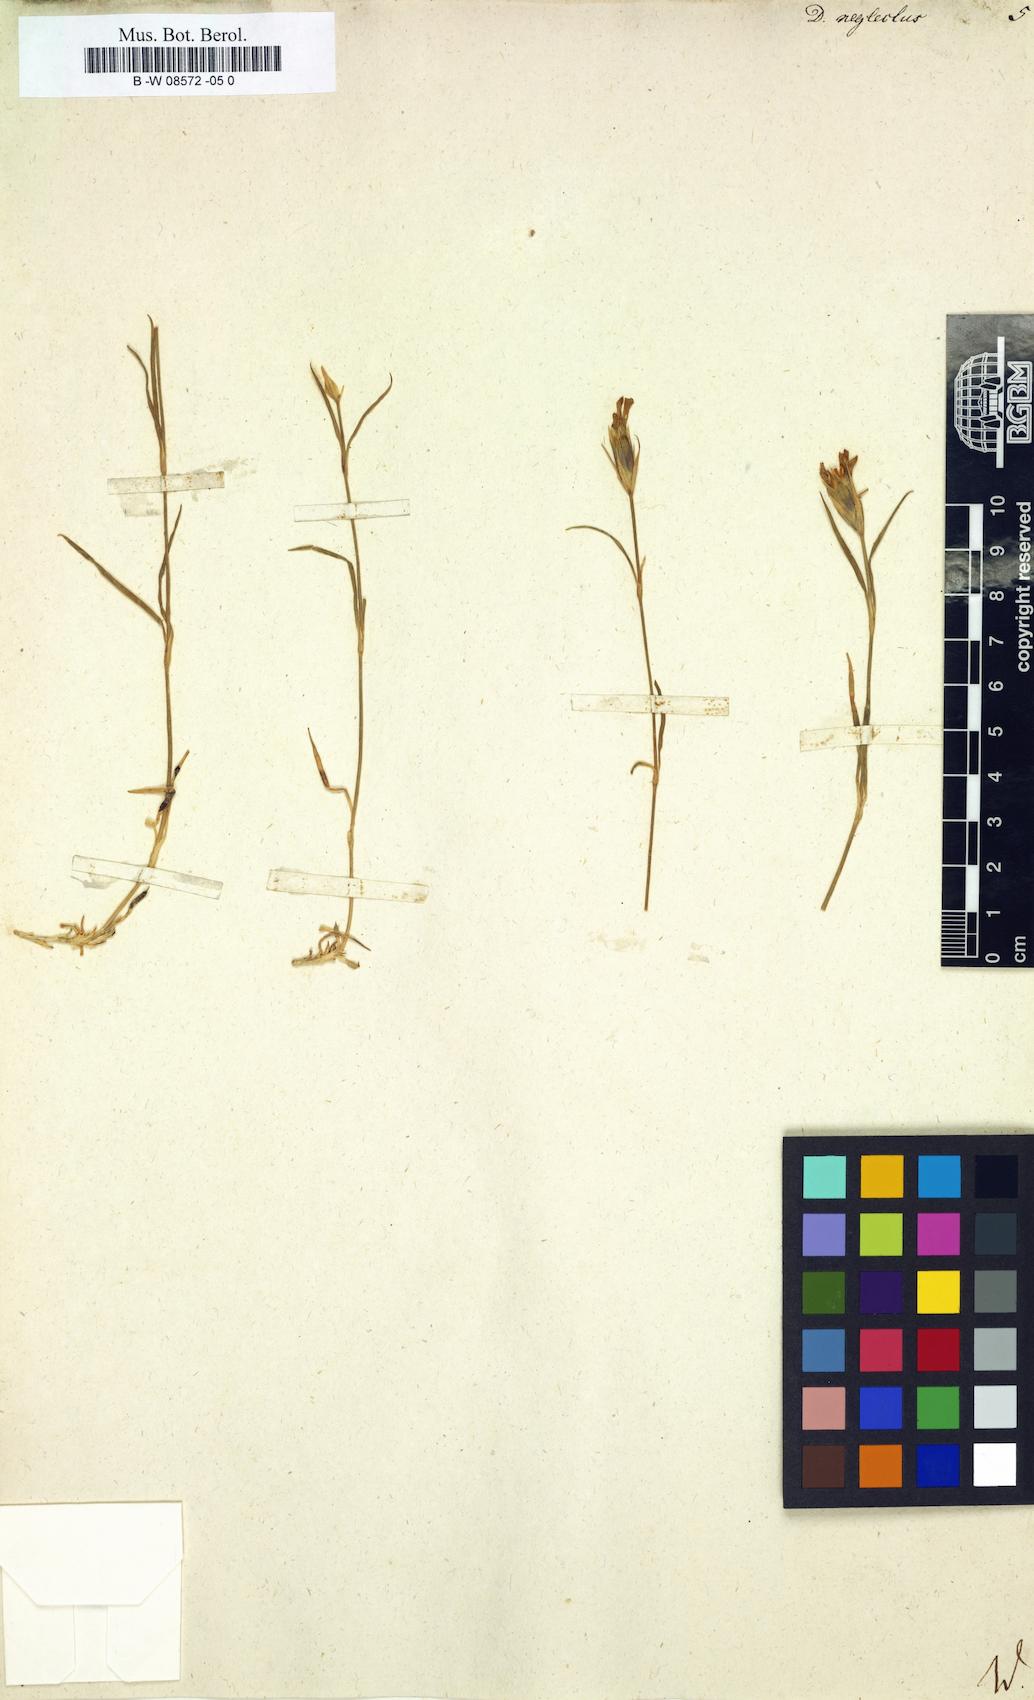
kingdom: Plantae
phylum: Tracheophyta
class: Magnoliopsida
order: Caryophyllales
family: Caryophyllaceae
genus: Dianthus
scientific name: Dianthus seguieri
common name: Ragged pink
